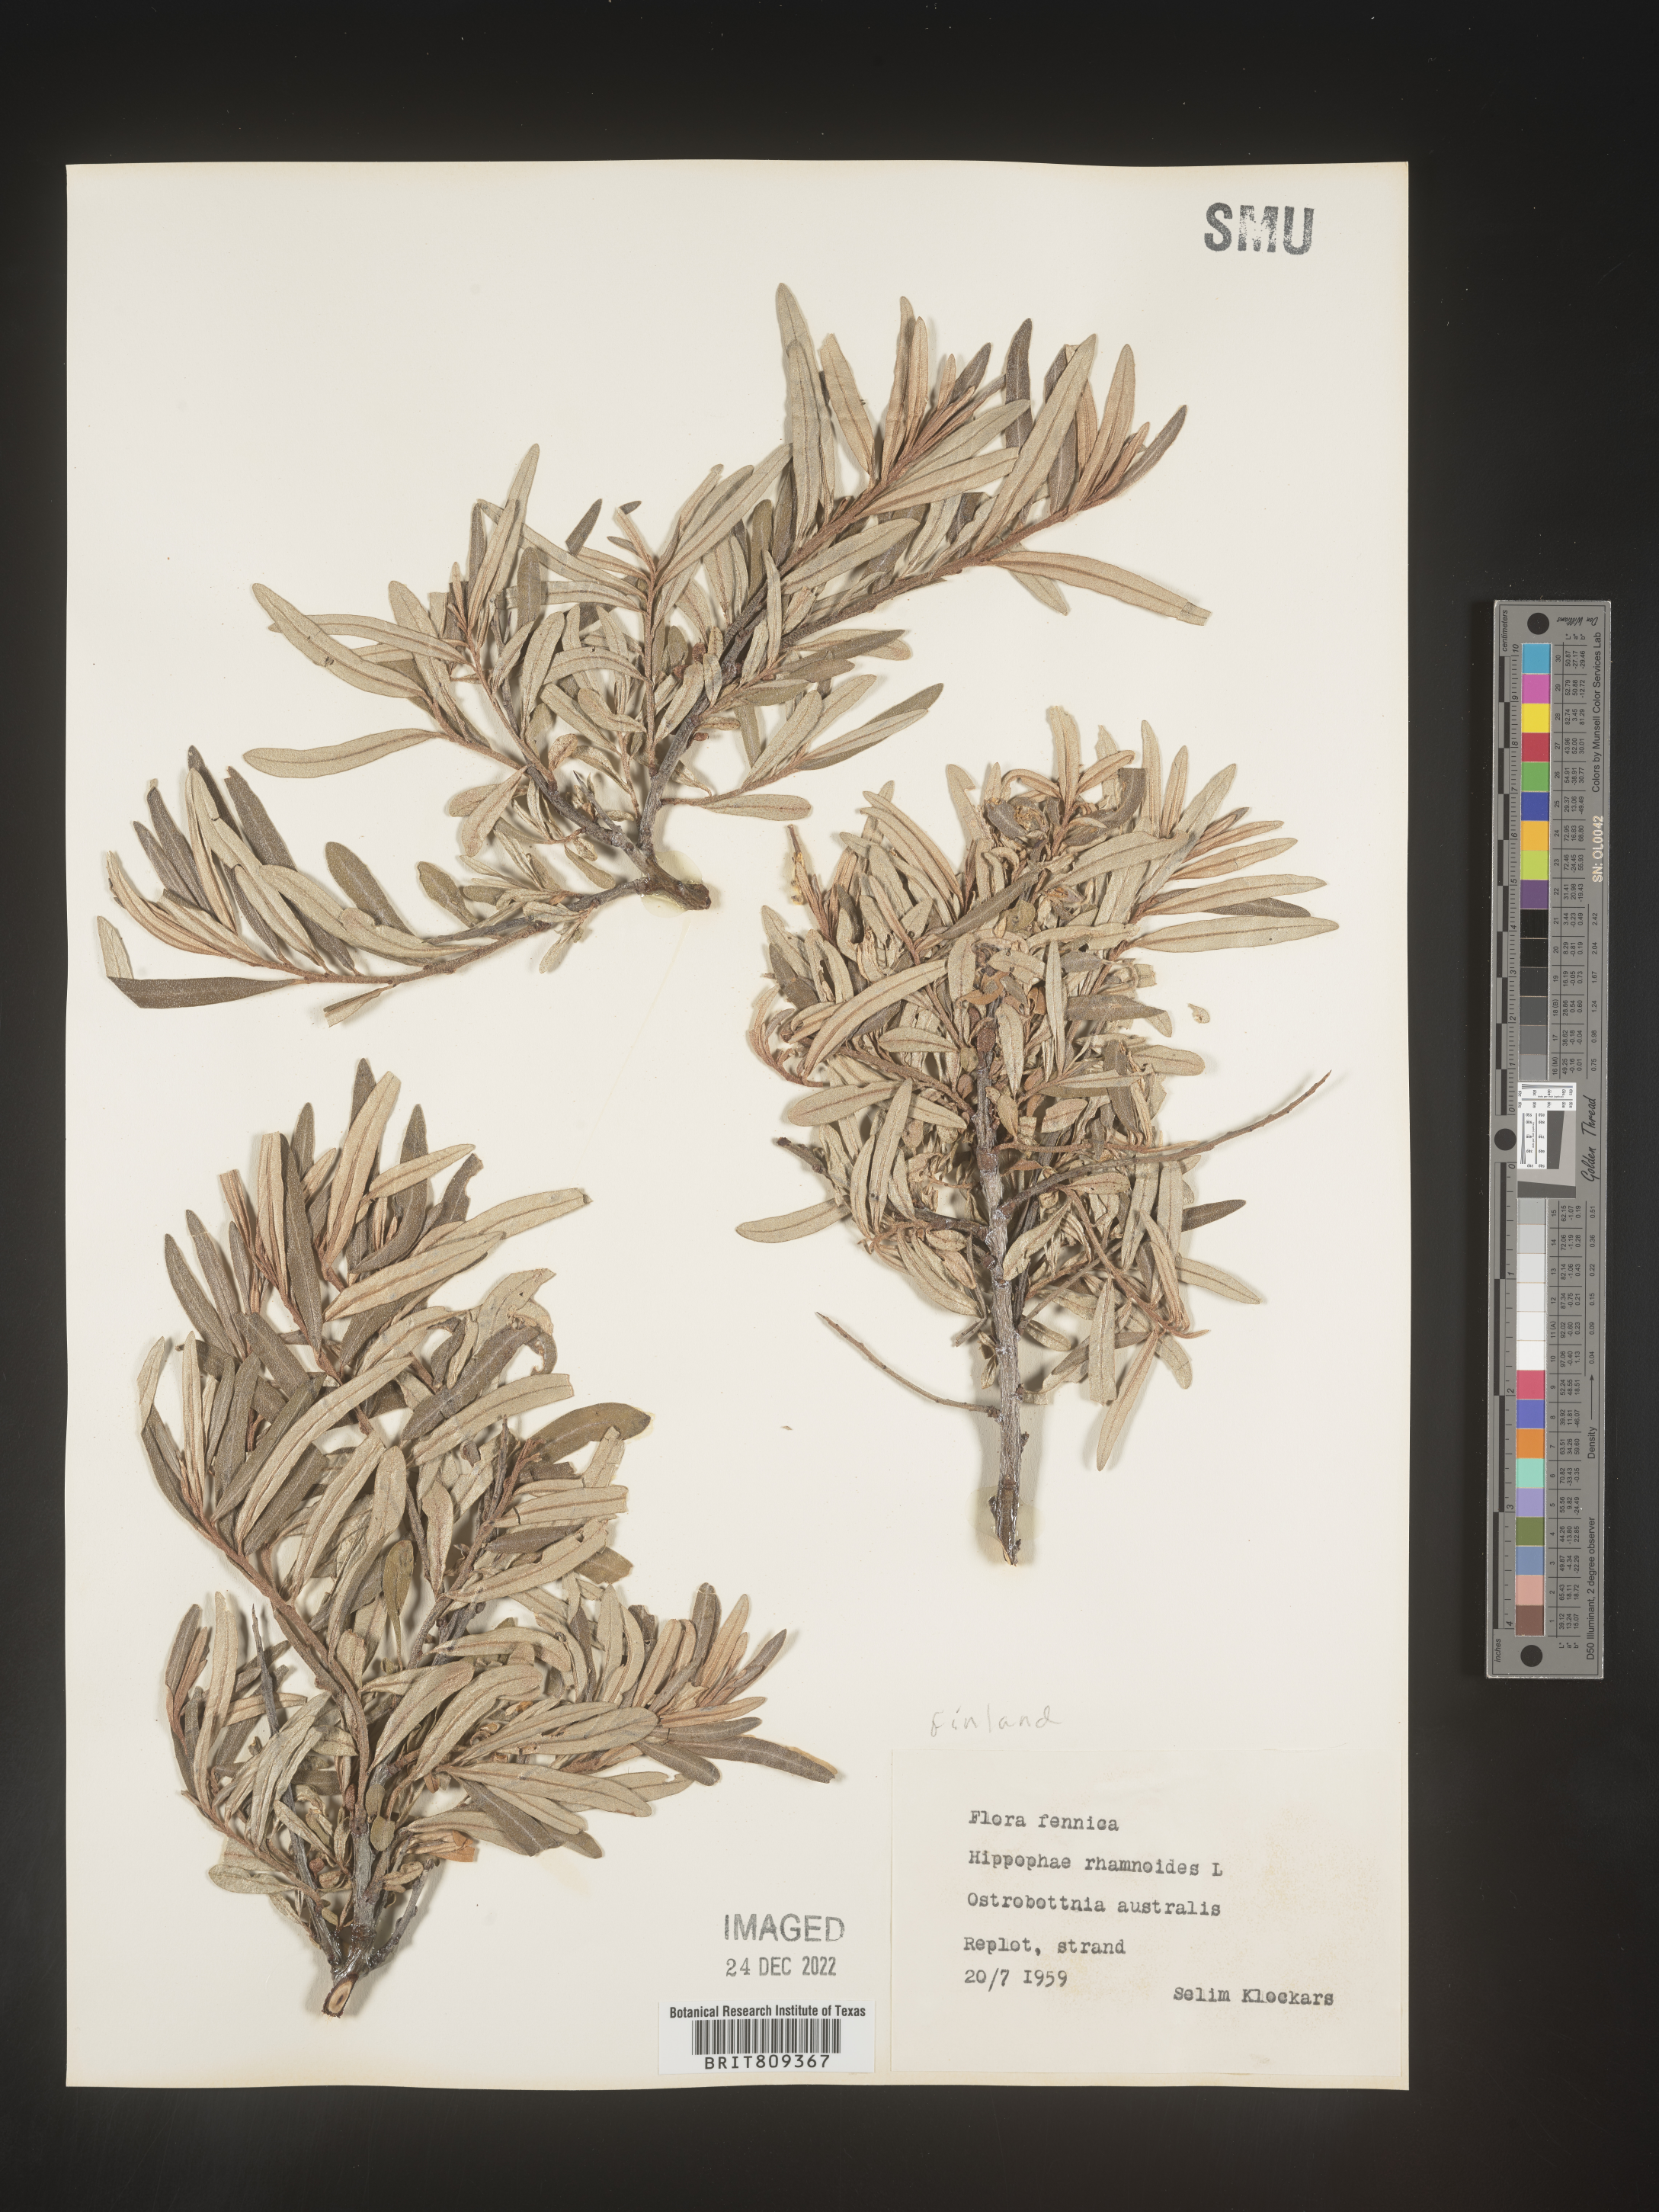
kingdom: Plantae
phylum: Tracheophyta
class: Magnoliopsida
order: Rosales
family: Elaeagnaceae
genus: Hippophae
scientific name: Hippophae
